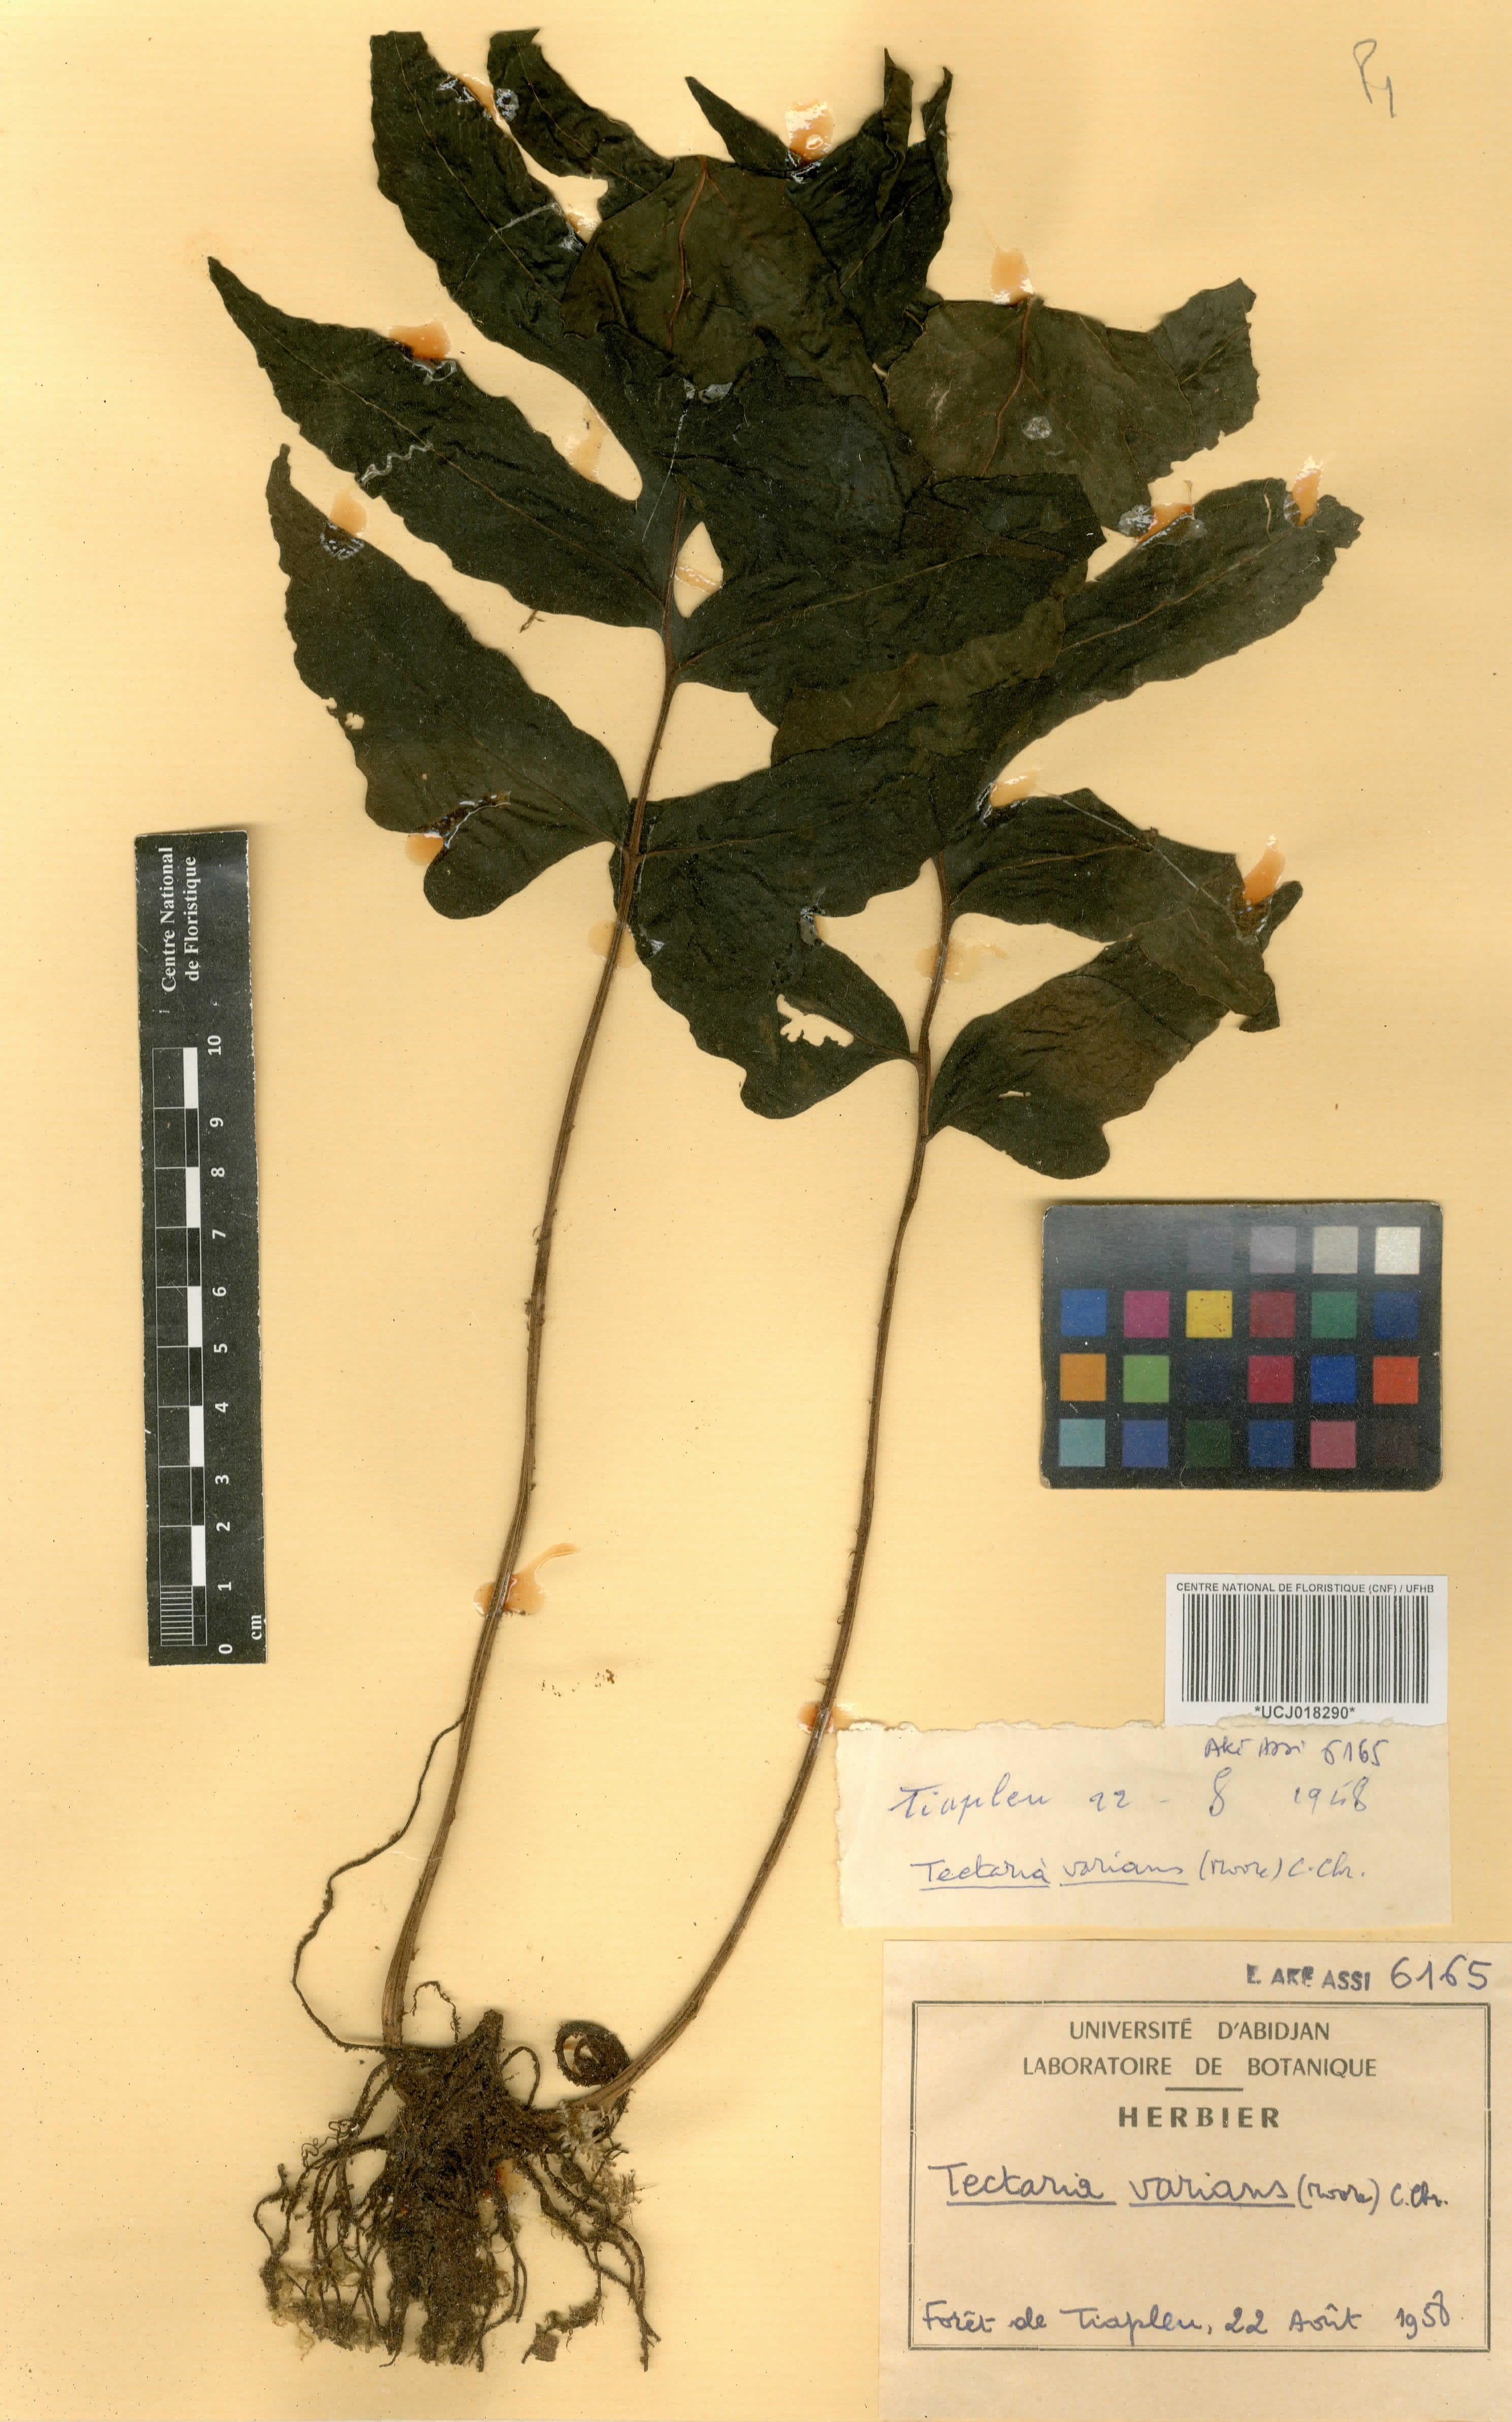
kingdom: Plantae
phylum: Tracheophyta
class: Polypodiopsida
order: Polypodiales
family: Tectariaceae
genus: Triplophyllum
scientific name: Triplophyllum varians
